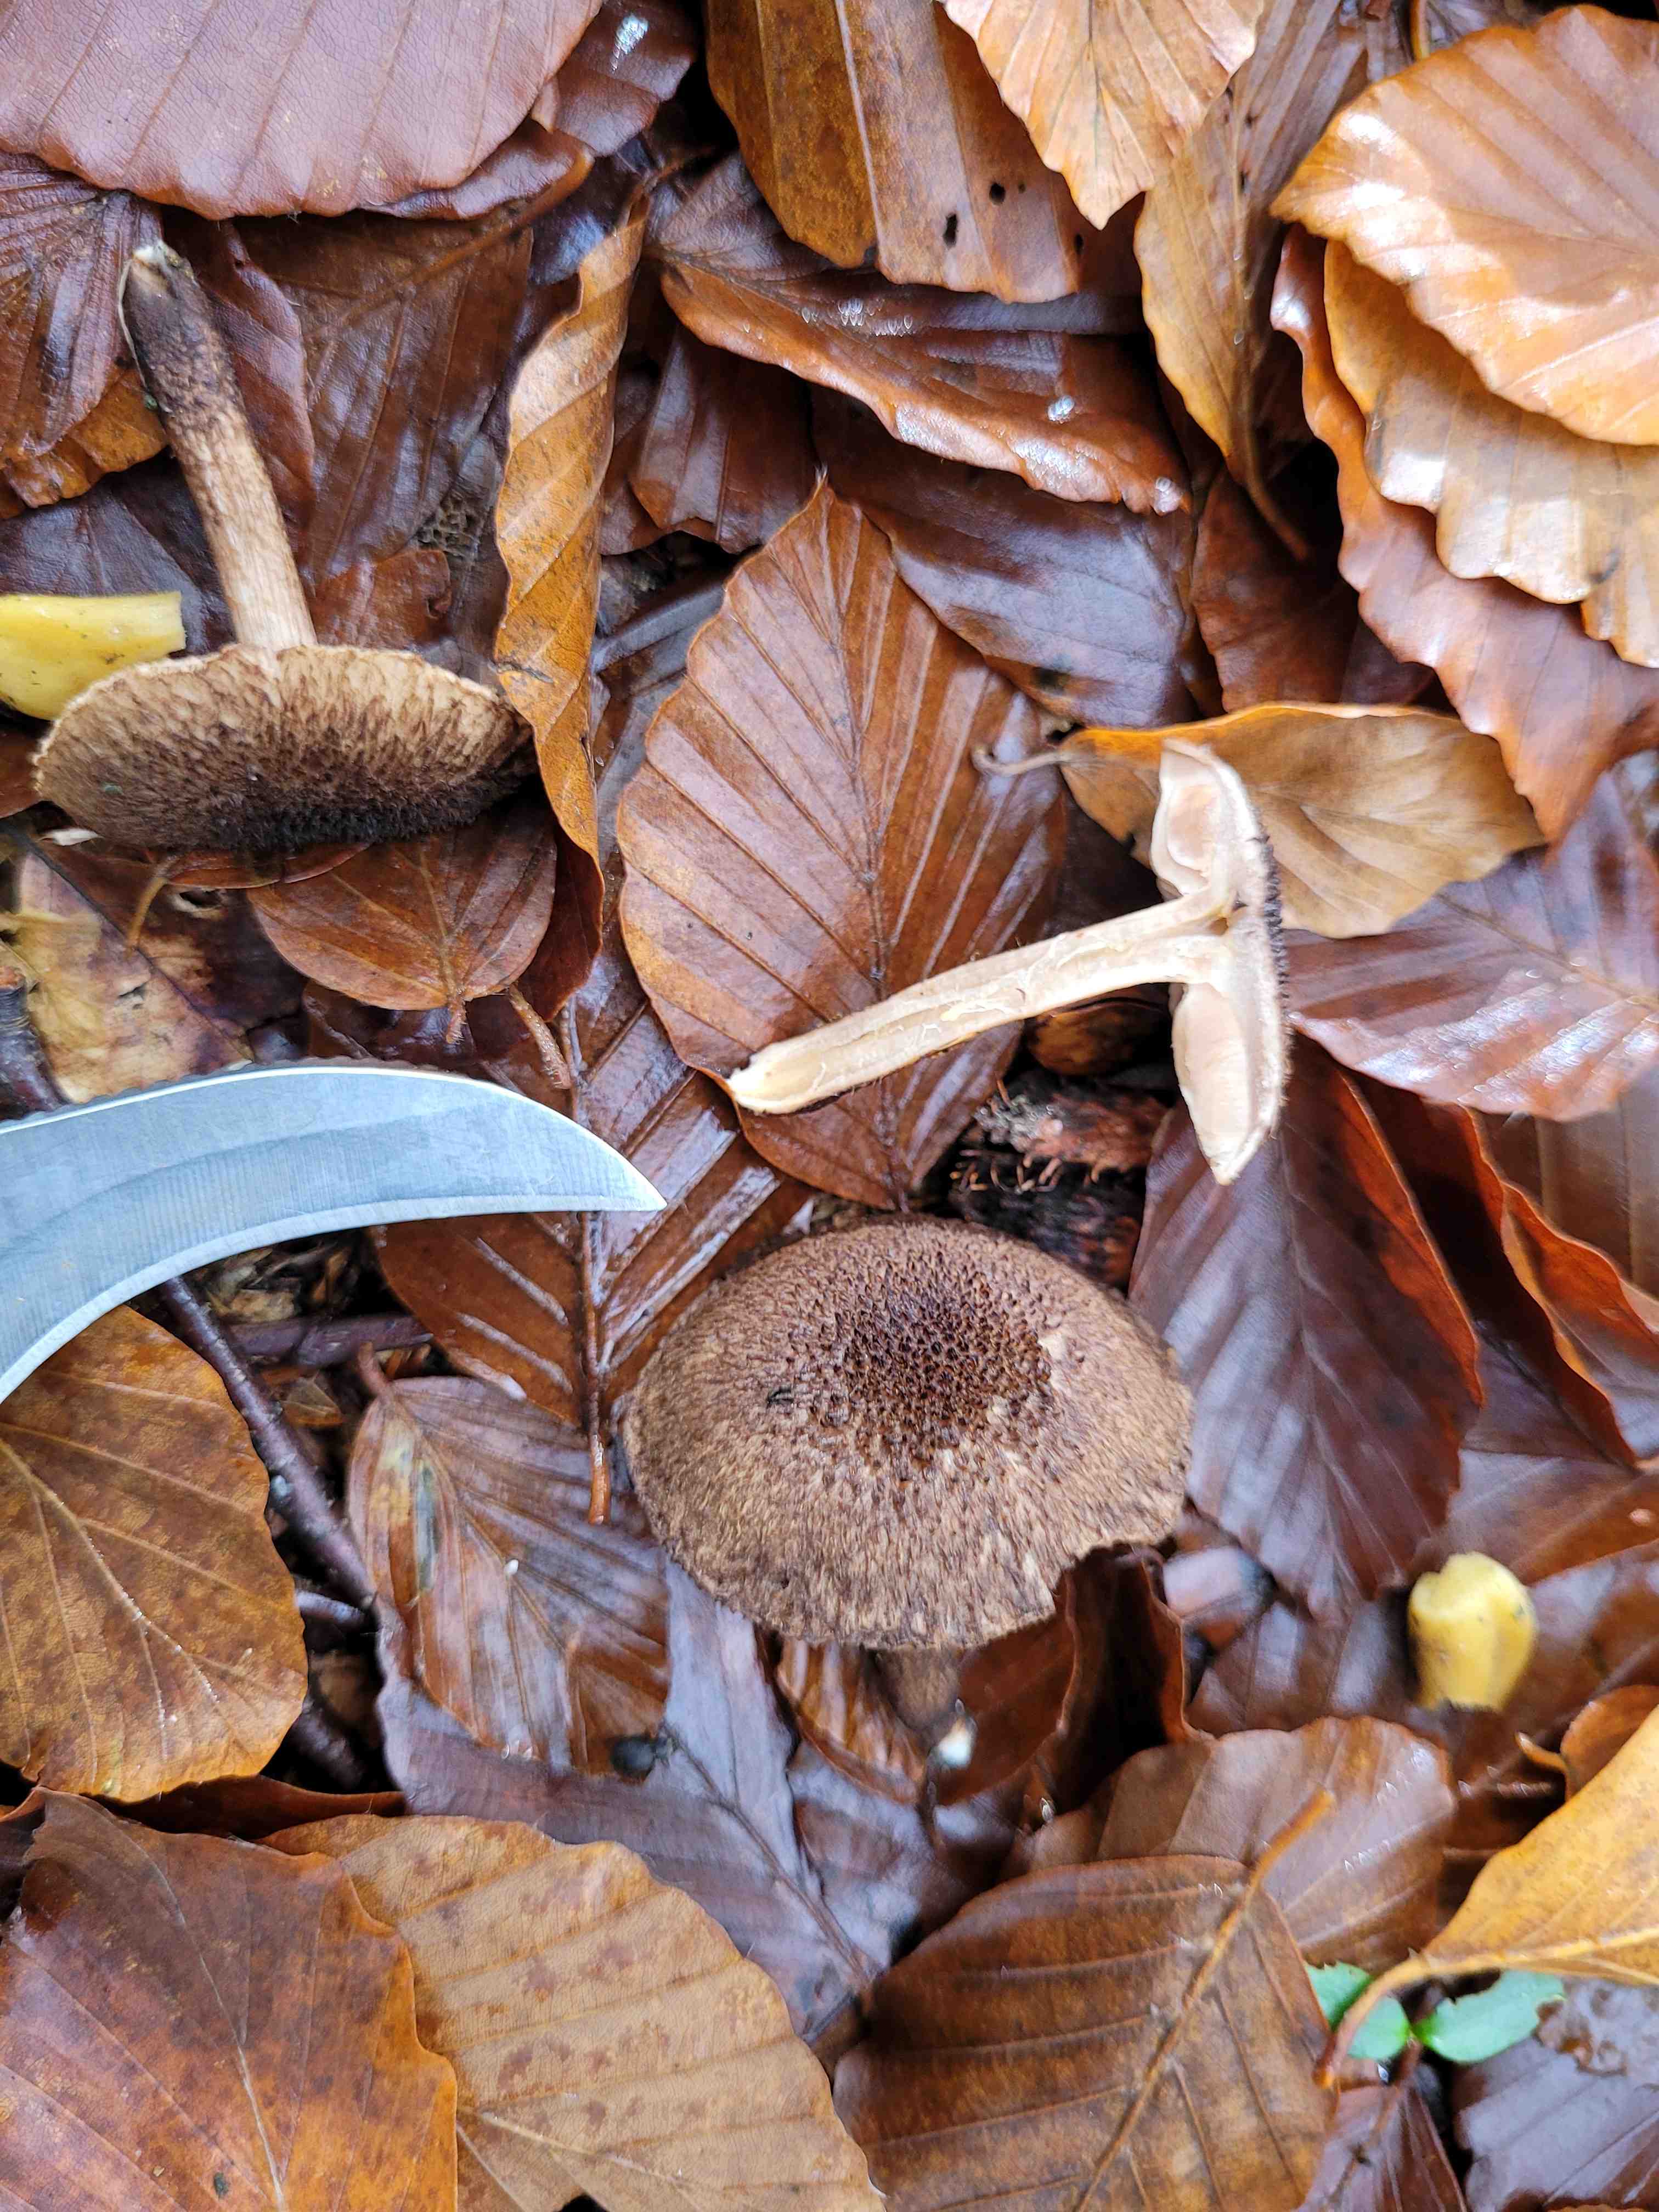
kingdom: Fungi
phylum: Basidiomycota
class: Agaricomycetes
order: Agaricales
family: Inocybaceae
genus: Inocybe
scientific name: Inocybe
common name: trævlhat
